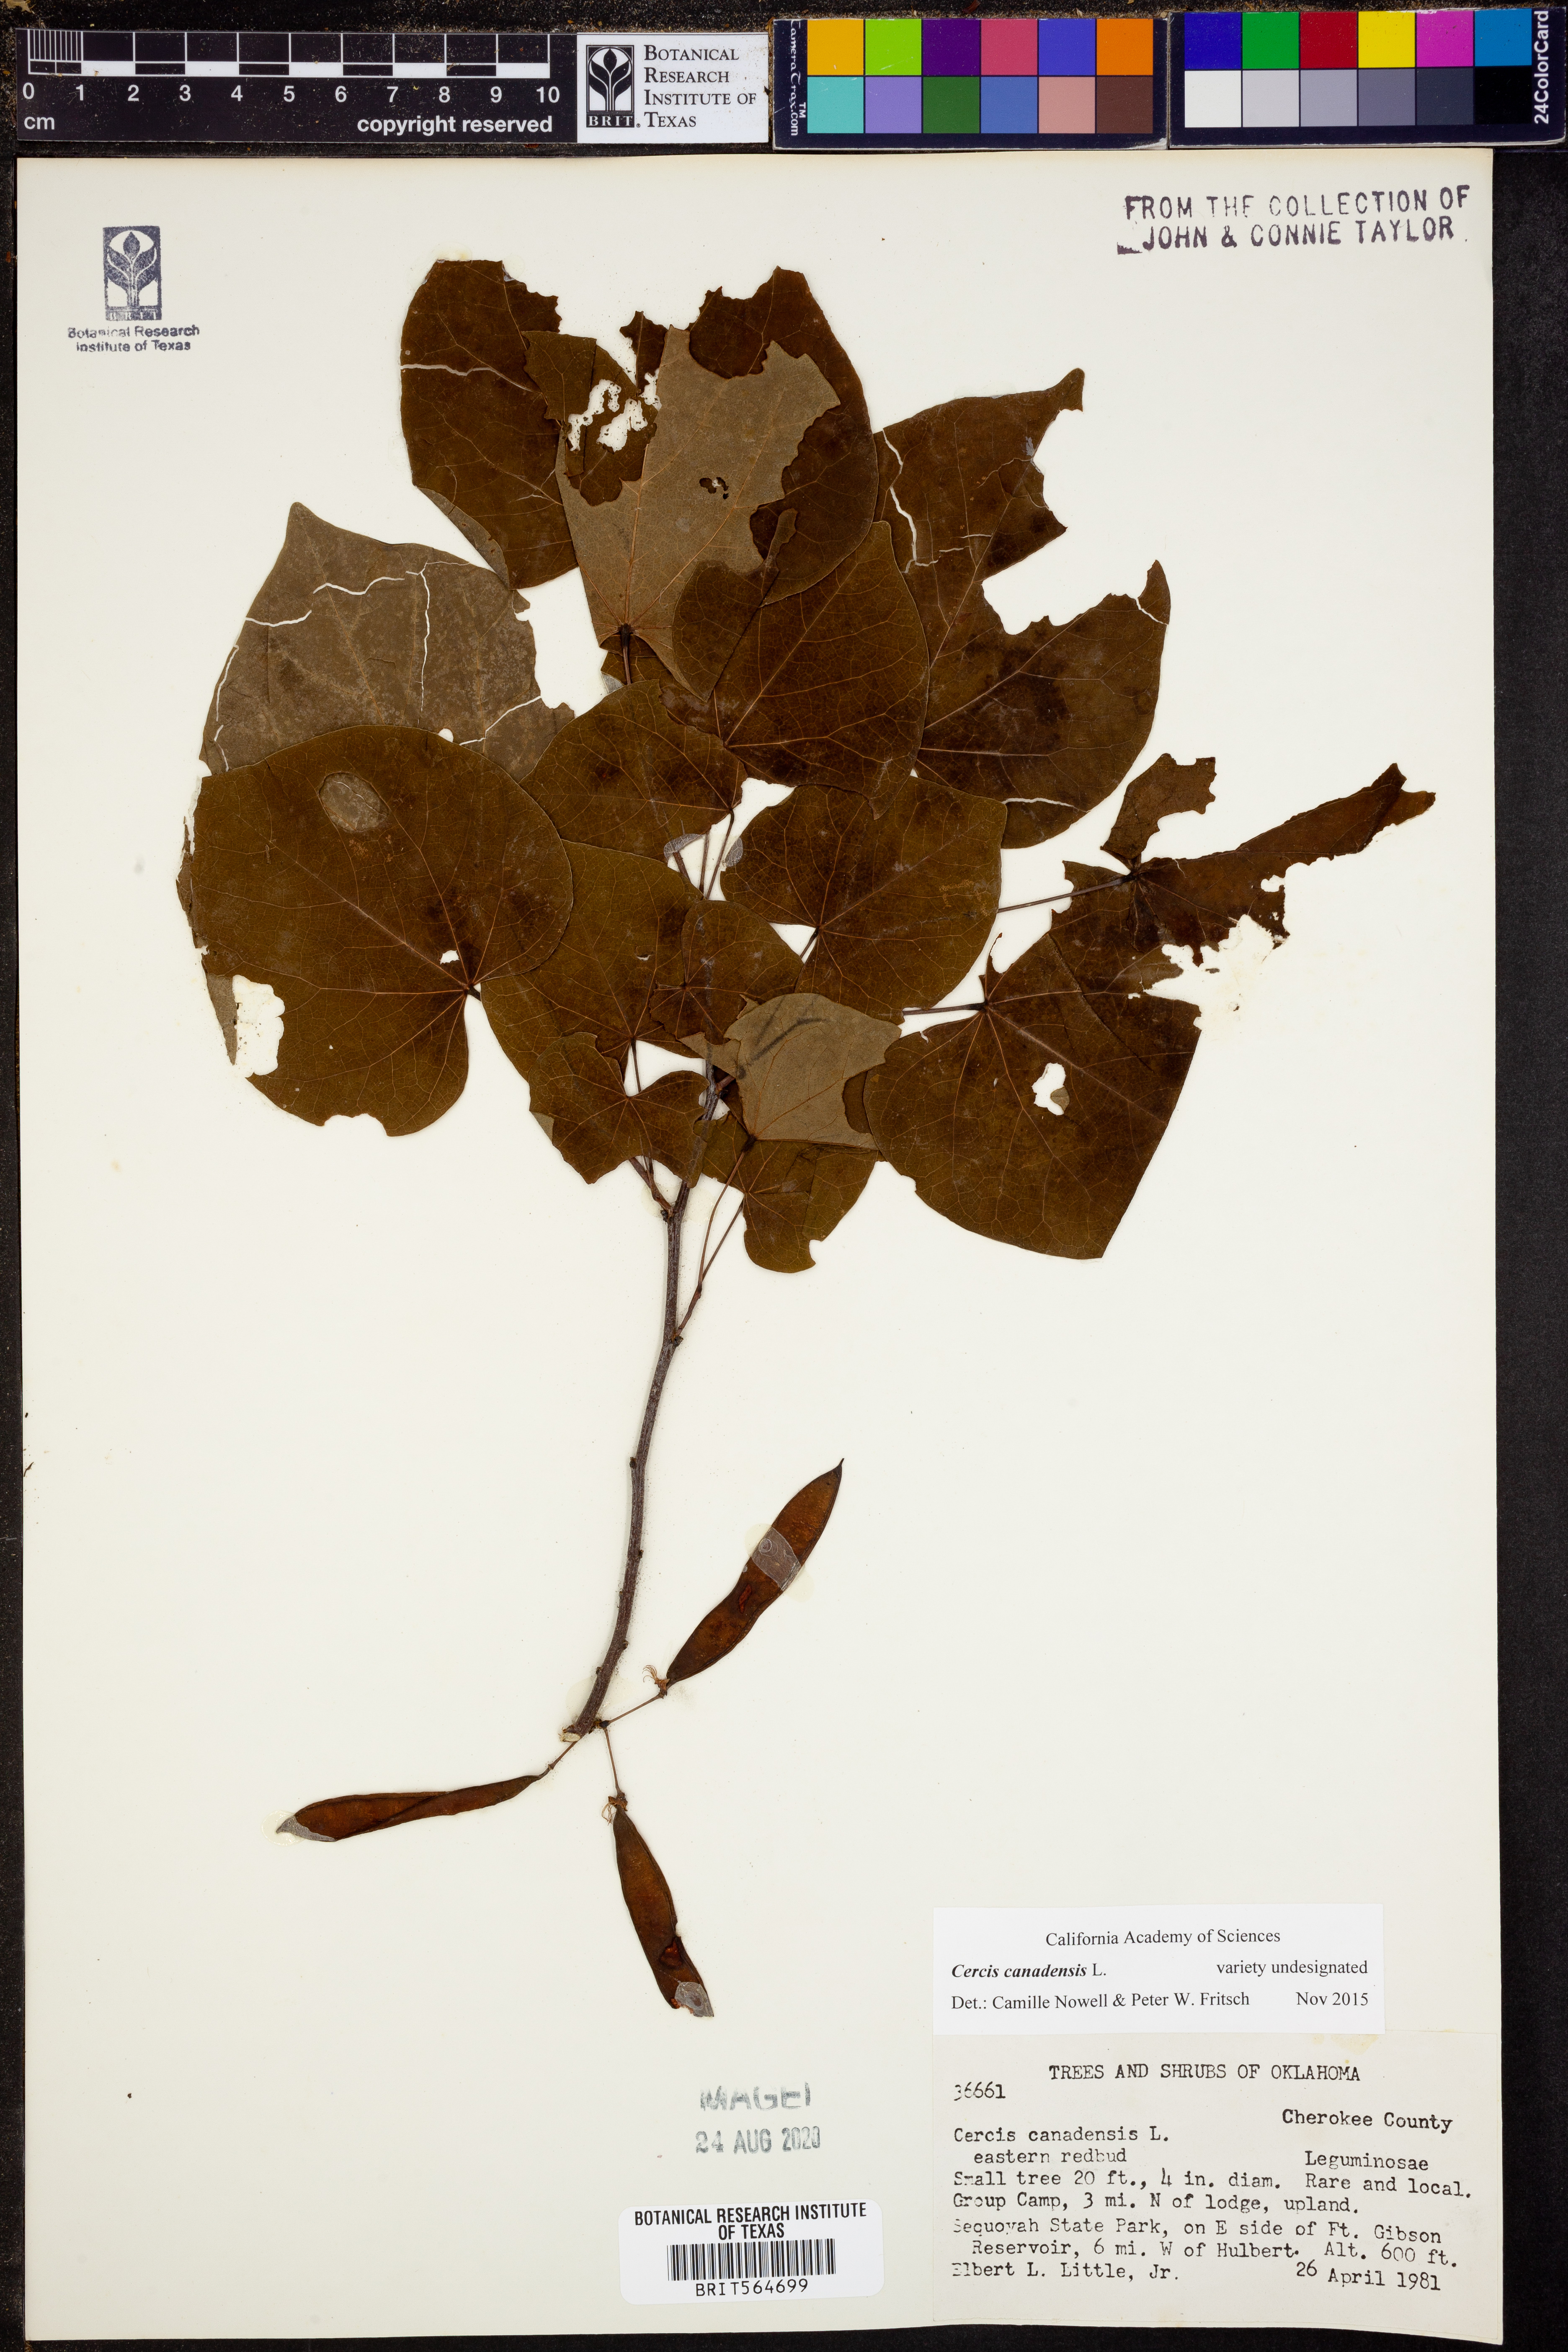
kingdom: Plantae
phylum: Tracheophyta
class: Magnoliopsida
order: Fabales
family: Fabaceae
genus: Cercis
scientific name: Cercis canadensis
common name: Eastern redbud
